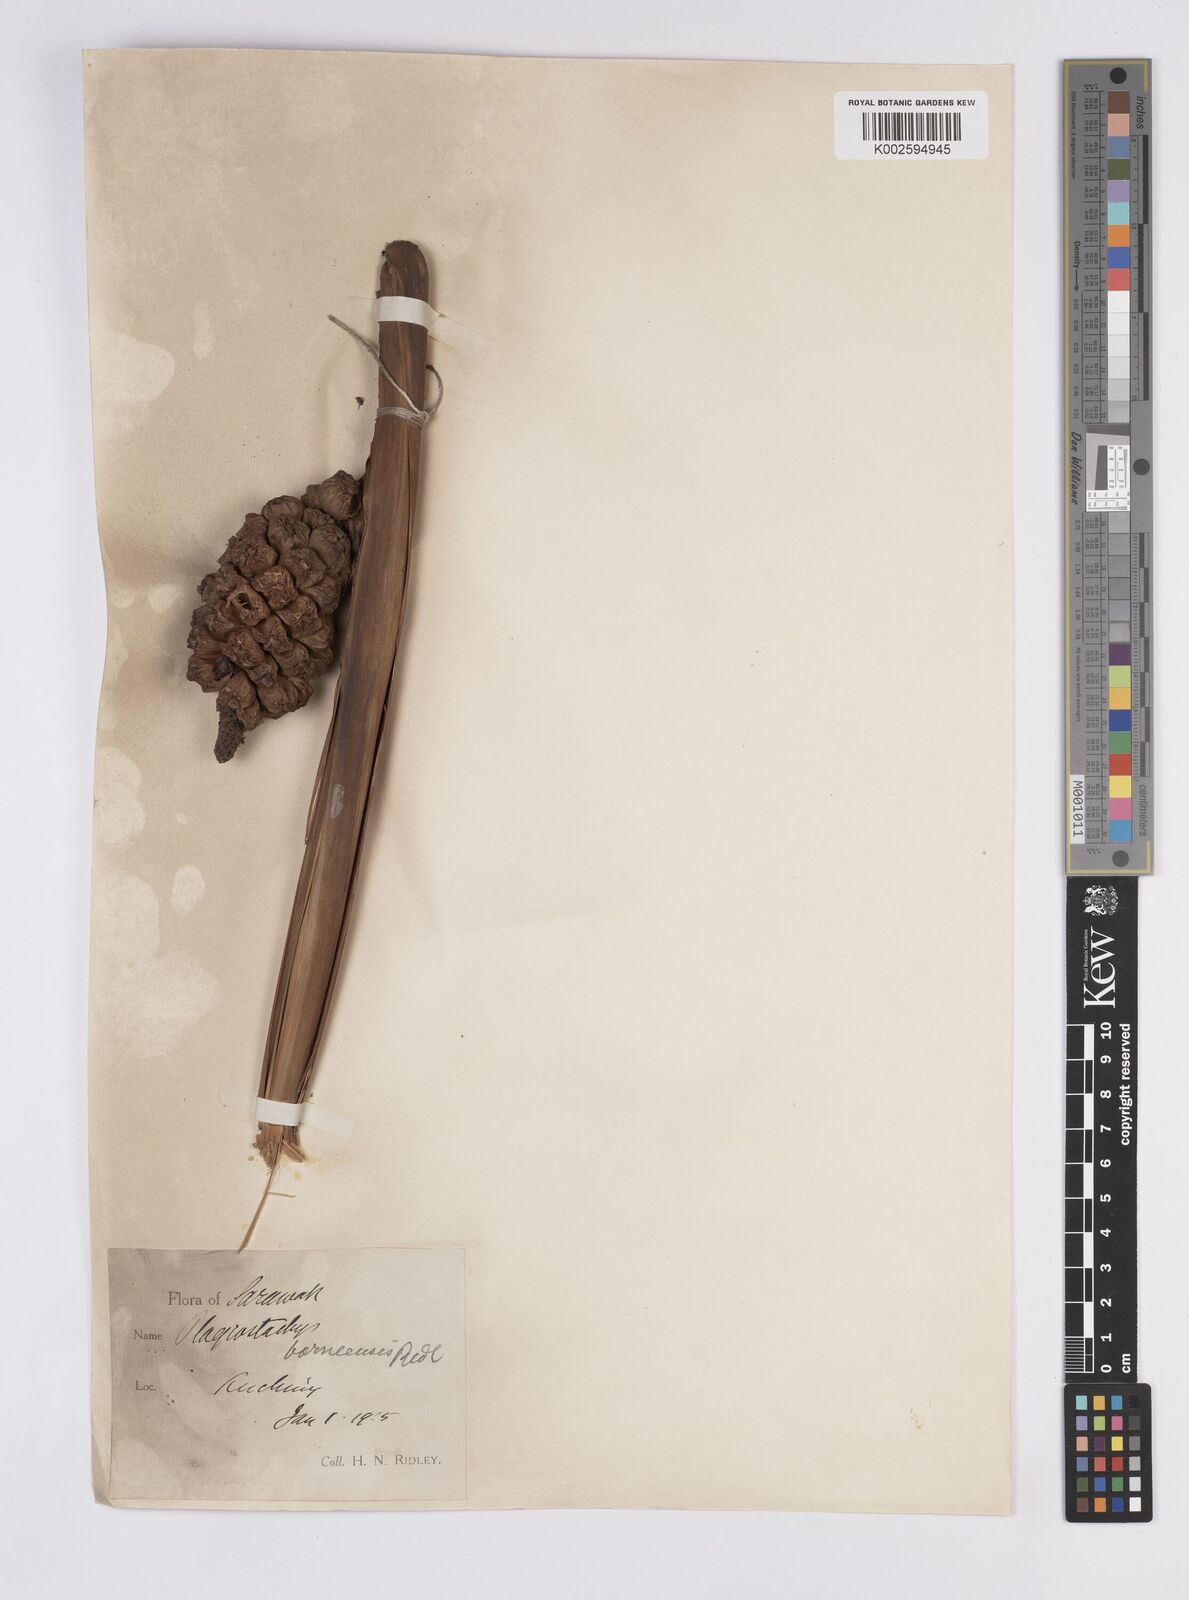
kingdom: Plantae
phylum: Tracheophyta
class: Liliopsida
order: Zingiberales
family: Zingiberaceae
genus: Plagiostachys
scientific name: Plagiostachys strobilifera
